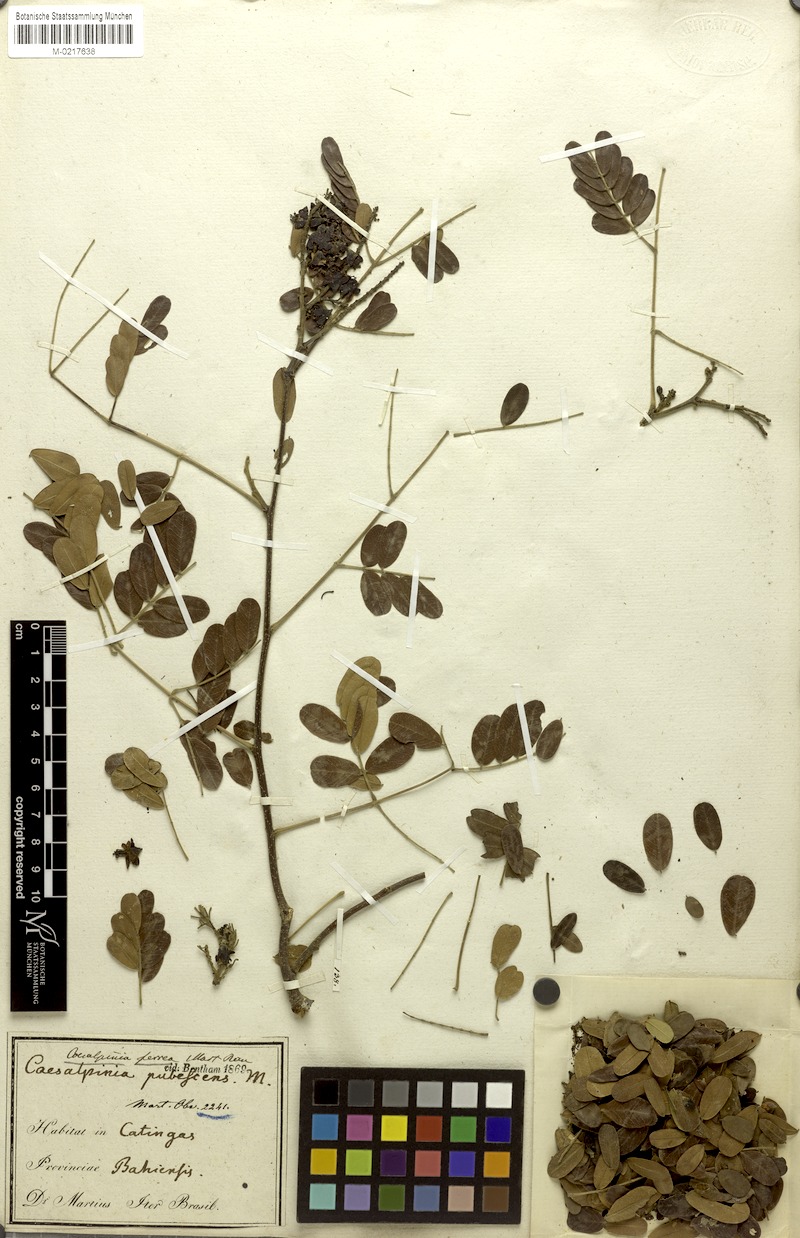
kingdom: Plantae
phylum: Tracheophyta
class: Magnoliopsida
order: Fabales
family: Fabaceae
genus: Libidibia
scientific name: Libidibia ferrea
